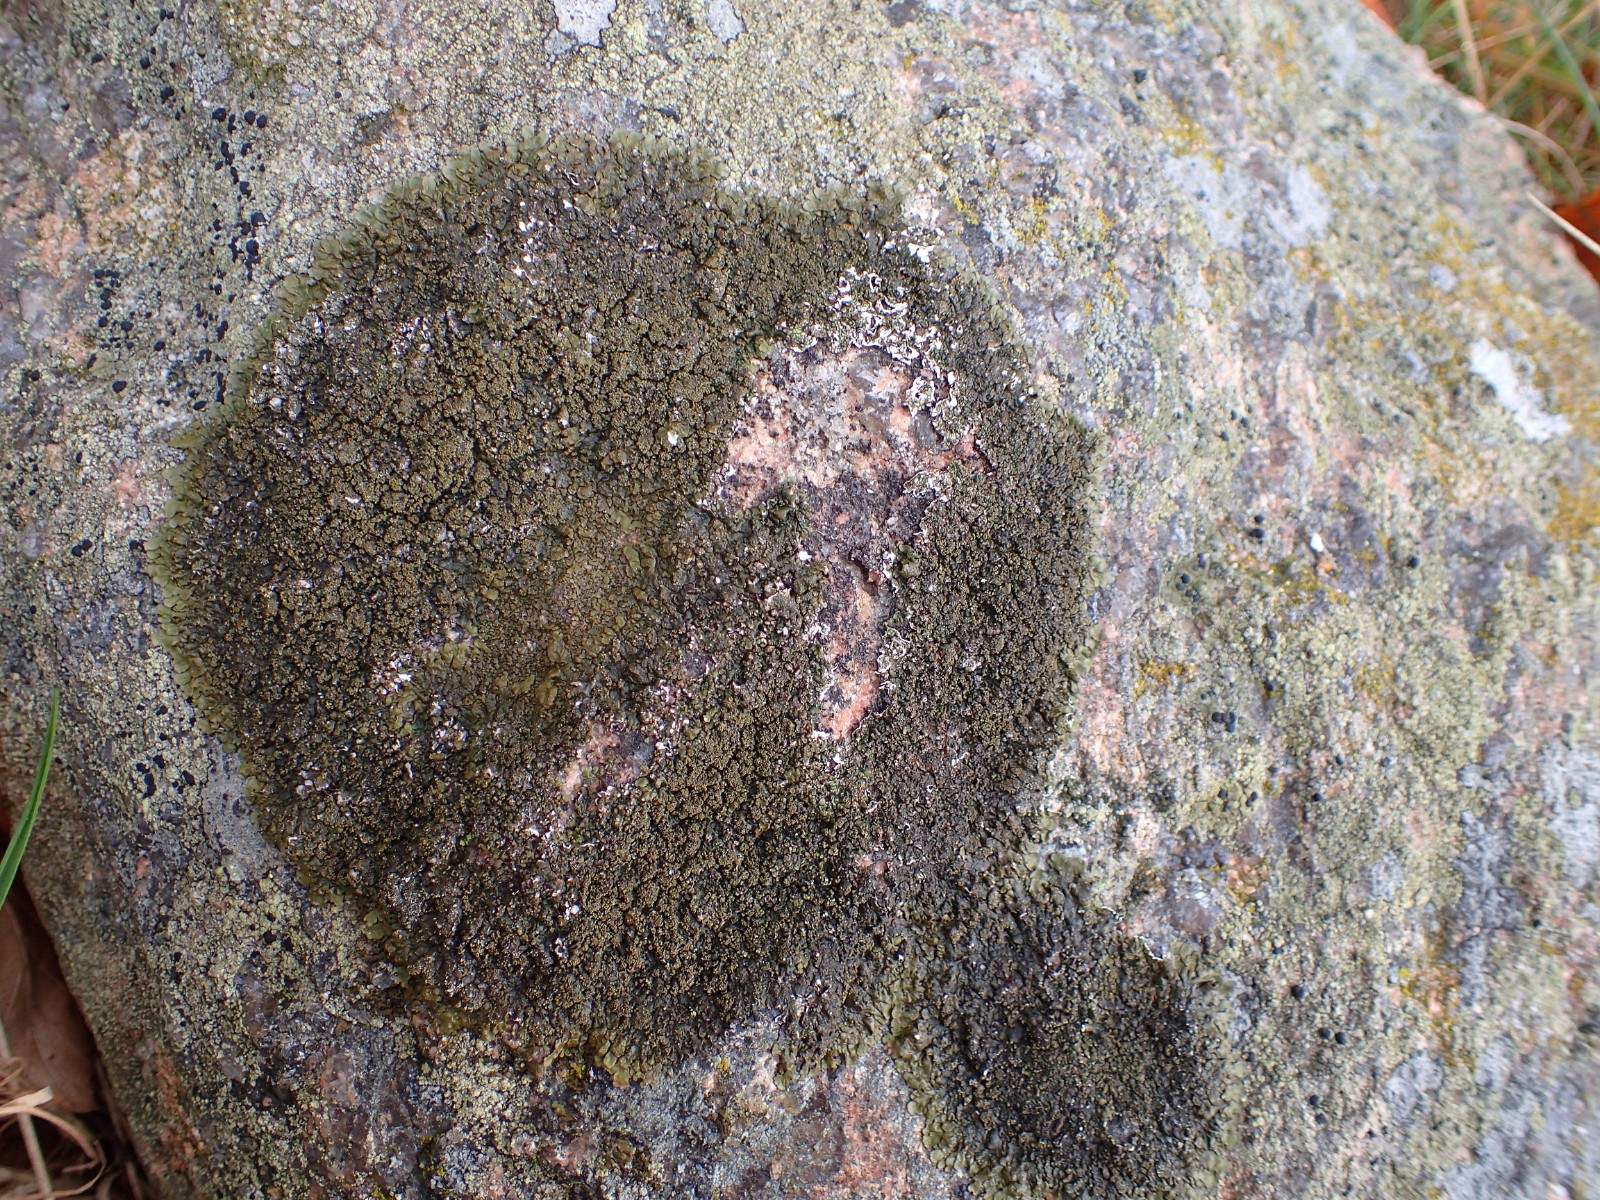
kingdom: Fungi
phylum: Ascomycota
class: Lecanoromycetes
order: Lecanorales
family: Parmeliaceae
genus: Xanthoparmelia
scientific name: Xanthoparmelia verruculifera
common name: småknoppet skållav
